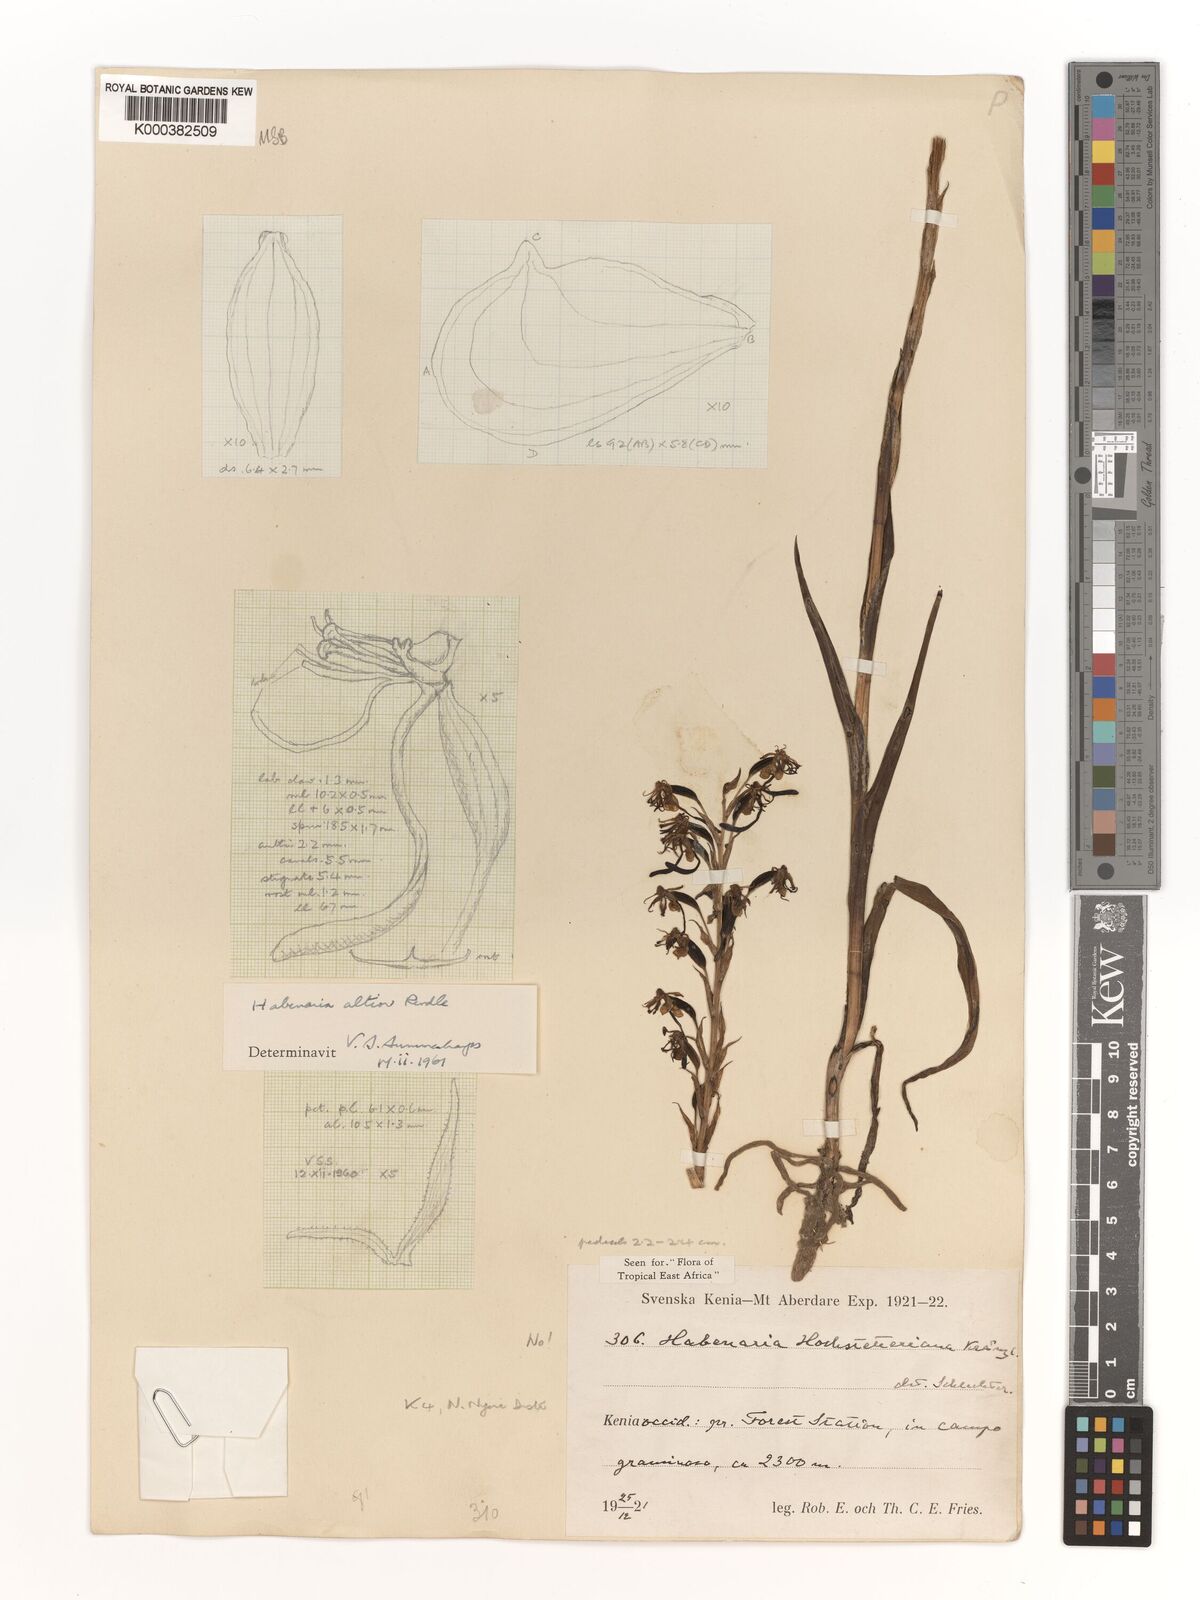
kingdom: Plantae
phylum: Tracheophyta
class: Liliopsida
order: Asparagales
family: Orchidaceae
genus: Habenaria
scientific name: Habenaria altior
